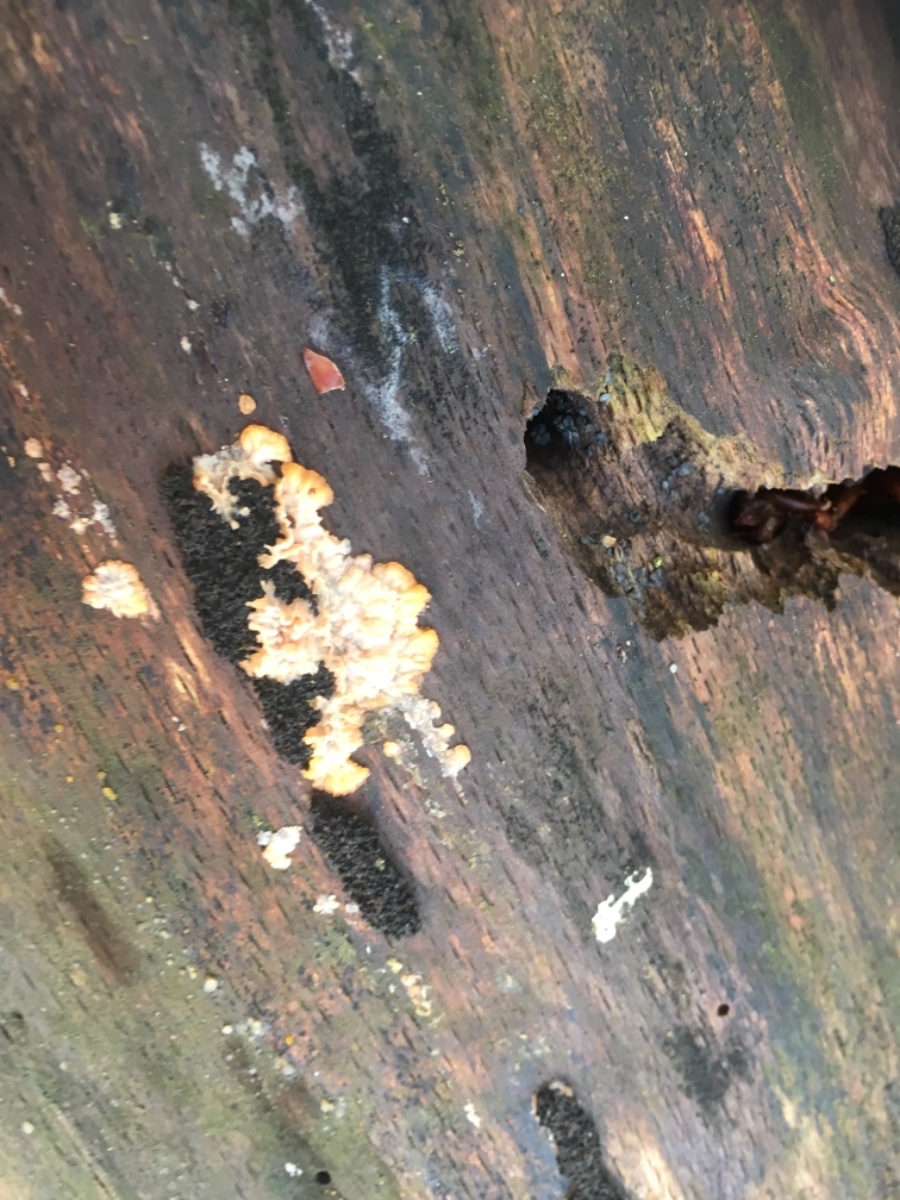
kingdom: Fungi
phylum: Basidiomycota
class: Agaricomycetes
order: Polyporales
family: Meruliaceae
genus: Phlebia
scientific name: Phlebia radiata
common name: stråle-åresvamp
